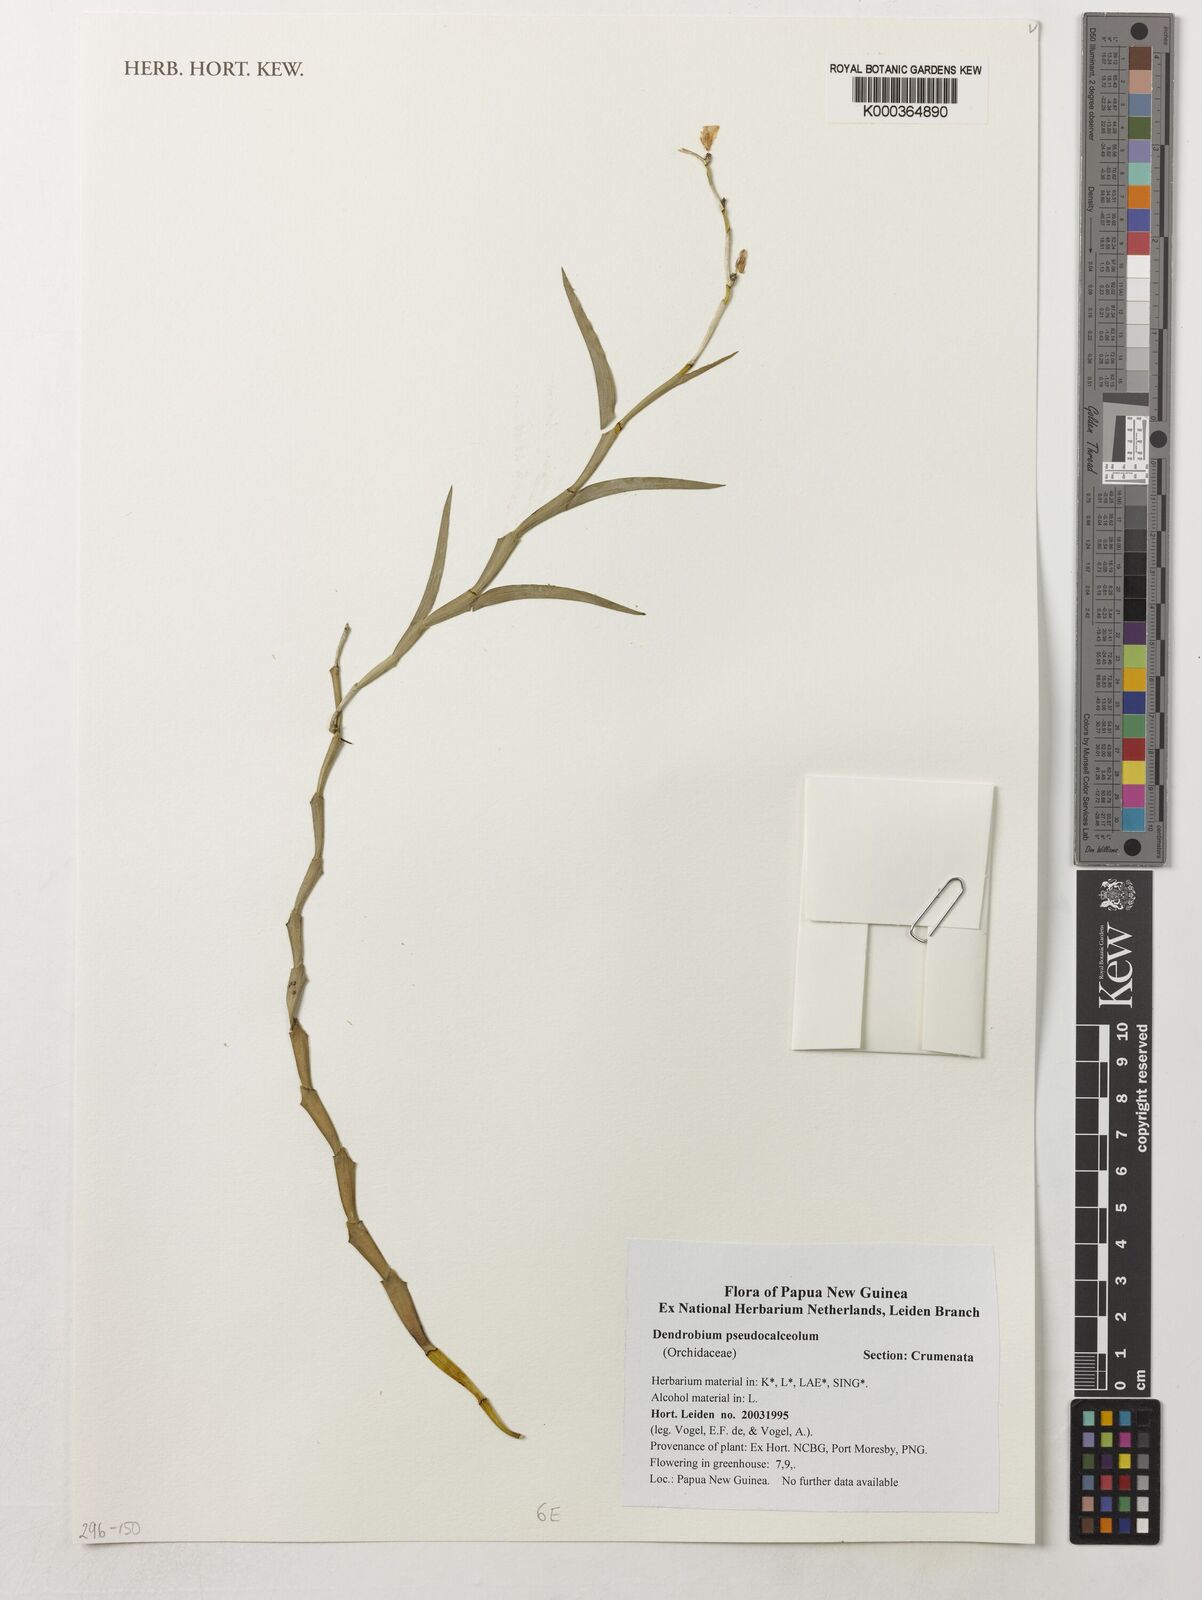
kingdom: Plantae
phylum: Tracheophyta
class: Liliopsida
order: Asparagales
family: Orchidaceae
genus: Dendrobium
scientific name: Dendrobium pseudocalceolum
